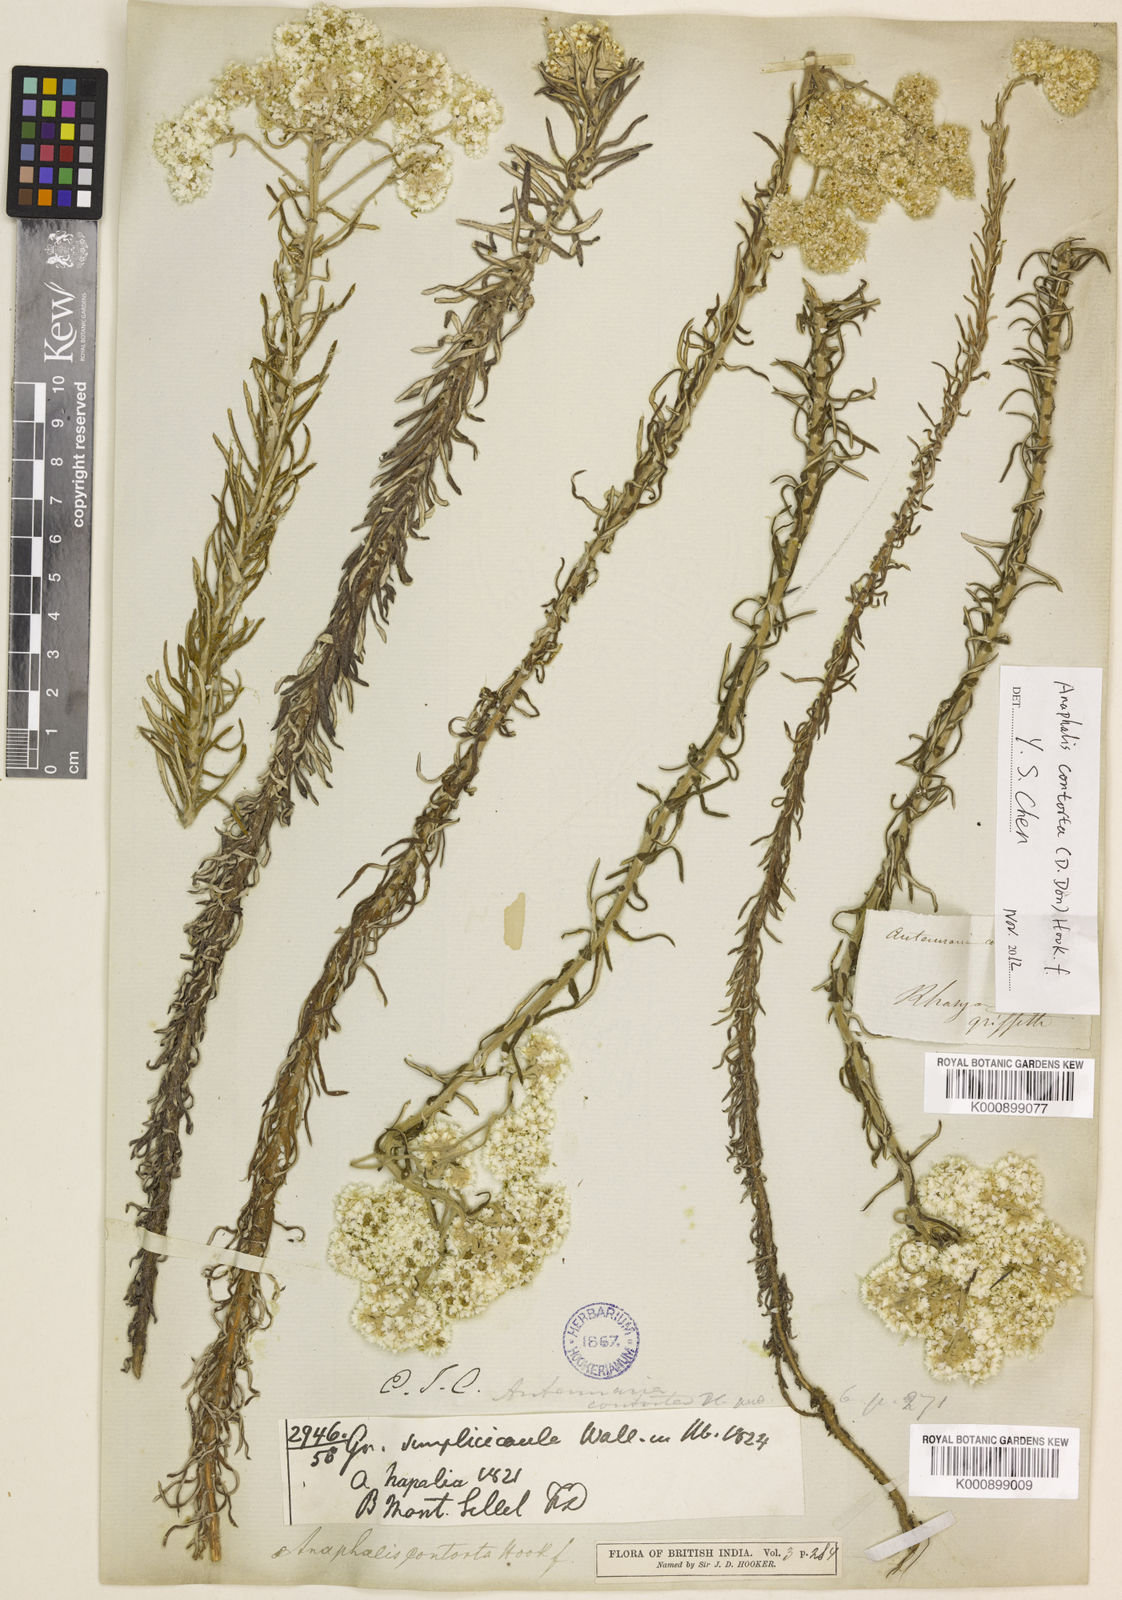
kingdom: Plantae
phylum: Tracheophyta
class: Magnoliopsida
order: Asterales
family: Asteraceae
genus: Anaphalis
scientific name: Anaphalis
